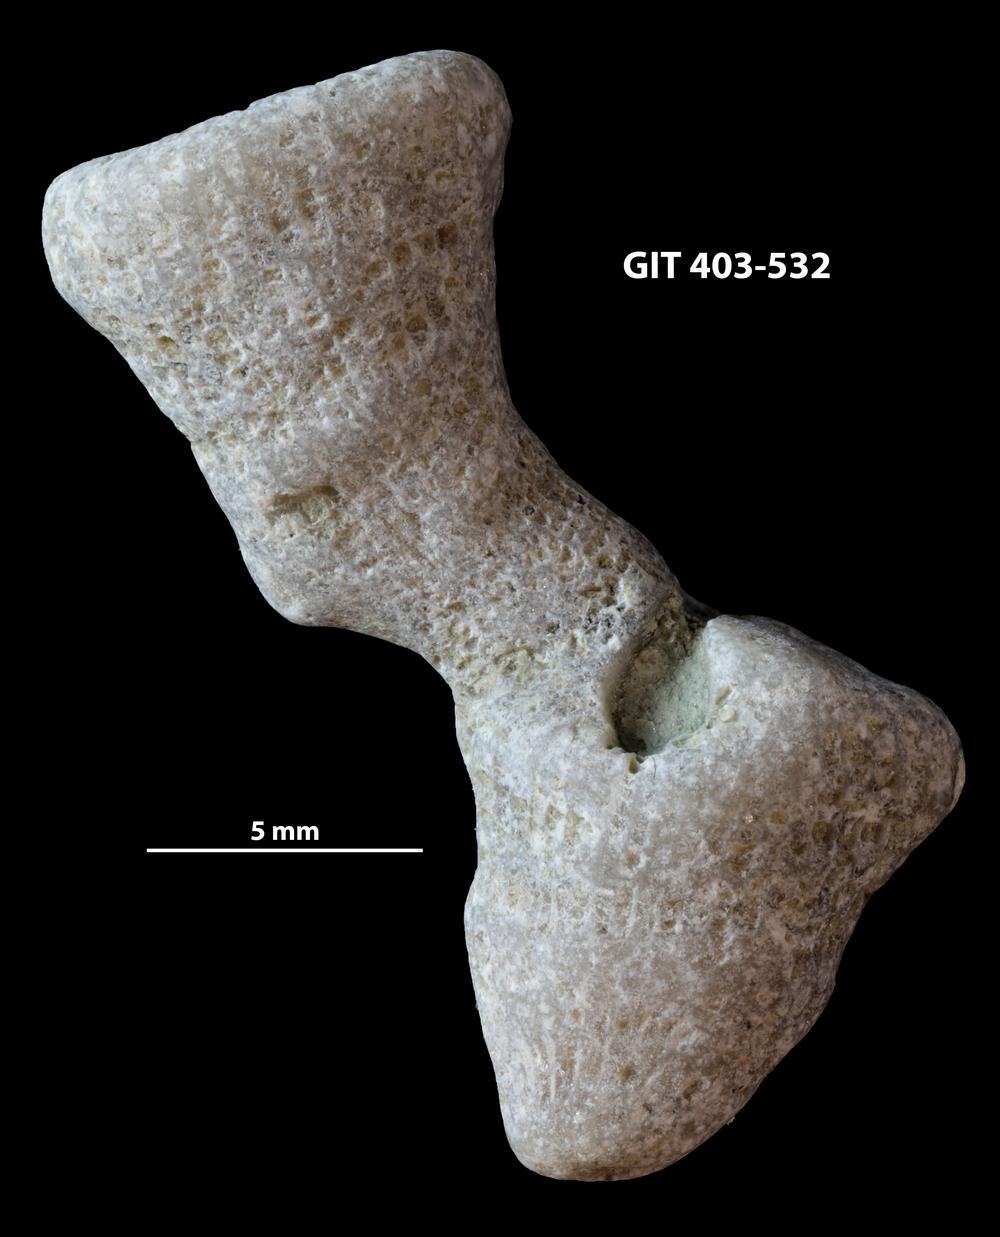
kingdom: Animalia
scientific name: Animalia
